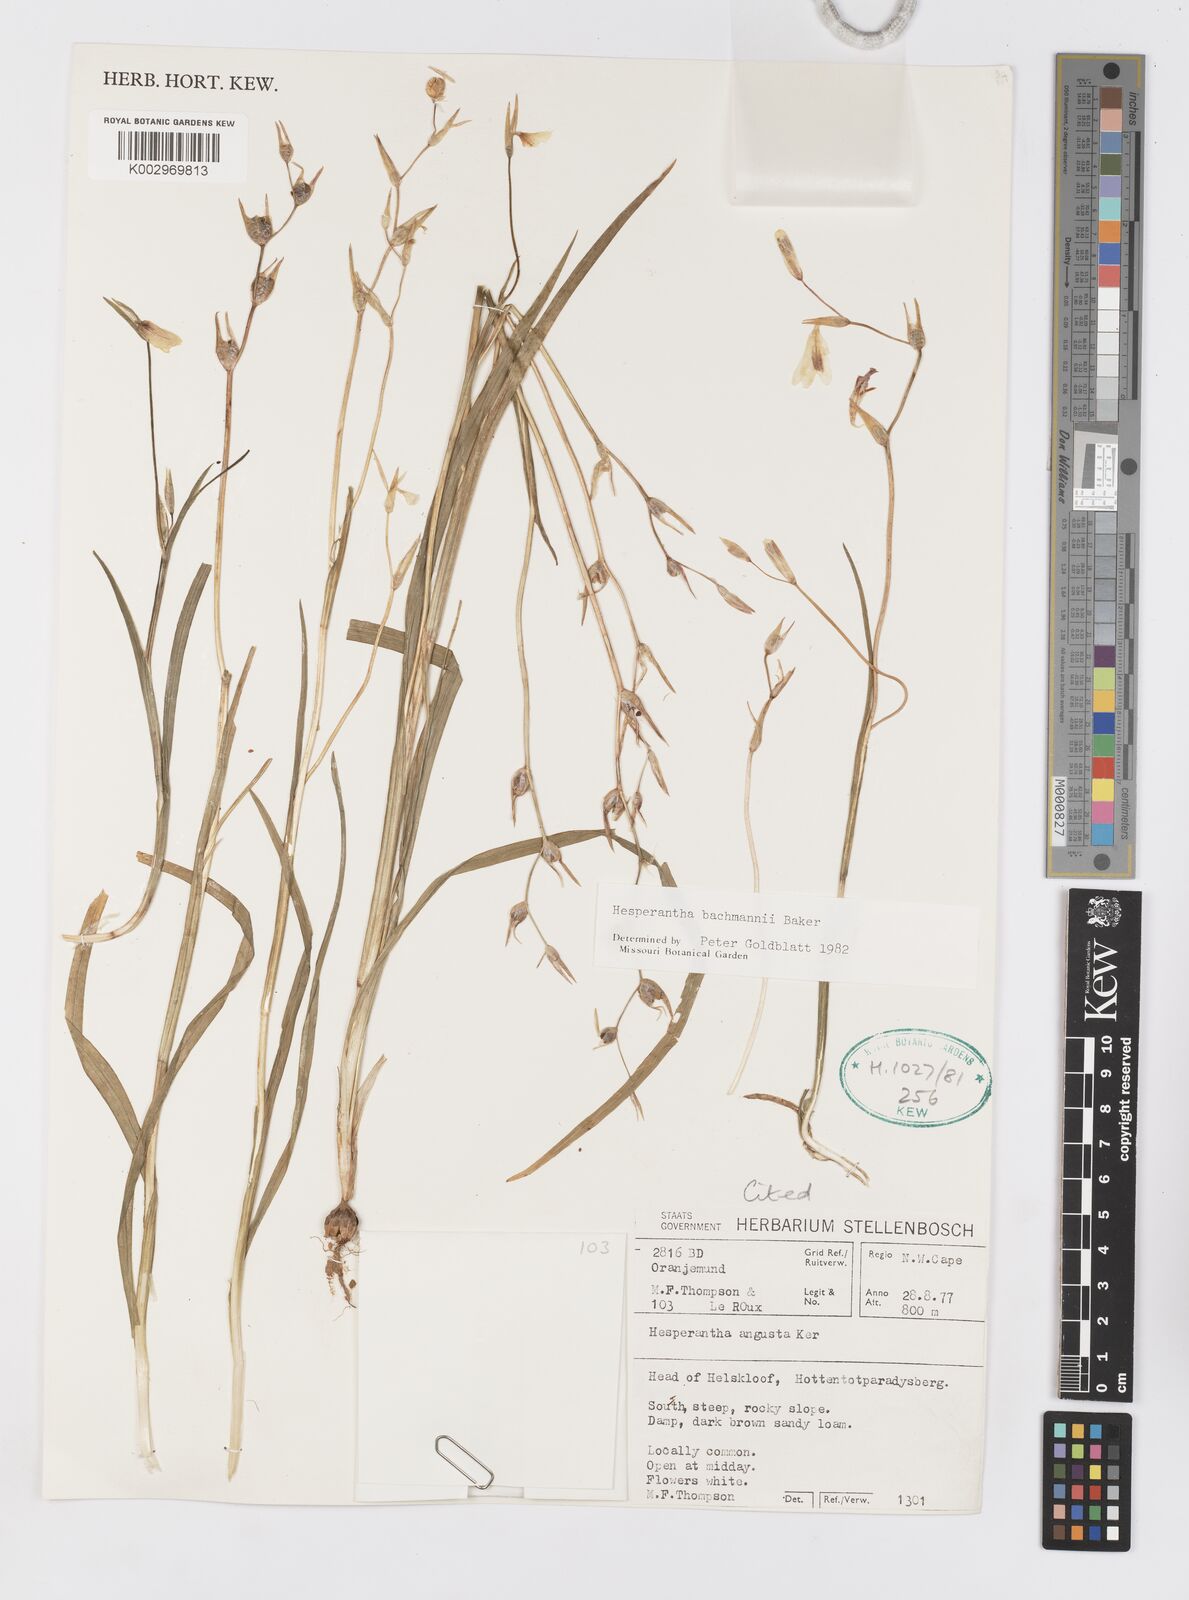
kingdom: Plantae
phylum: Tracheophyta
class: Liliopsida
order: Asparagales
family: Iridaceae
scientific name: Iridaceae
